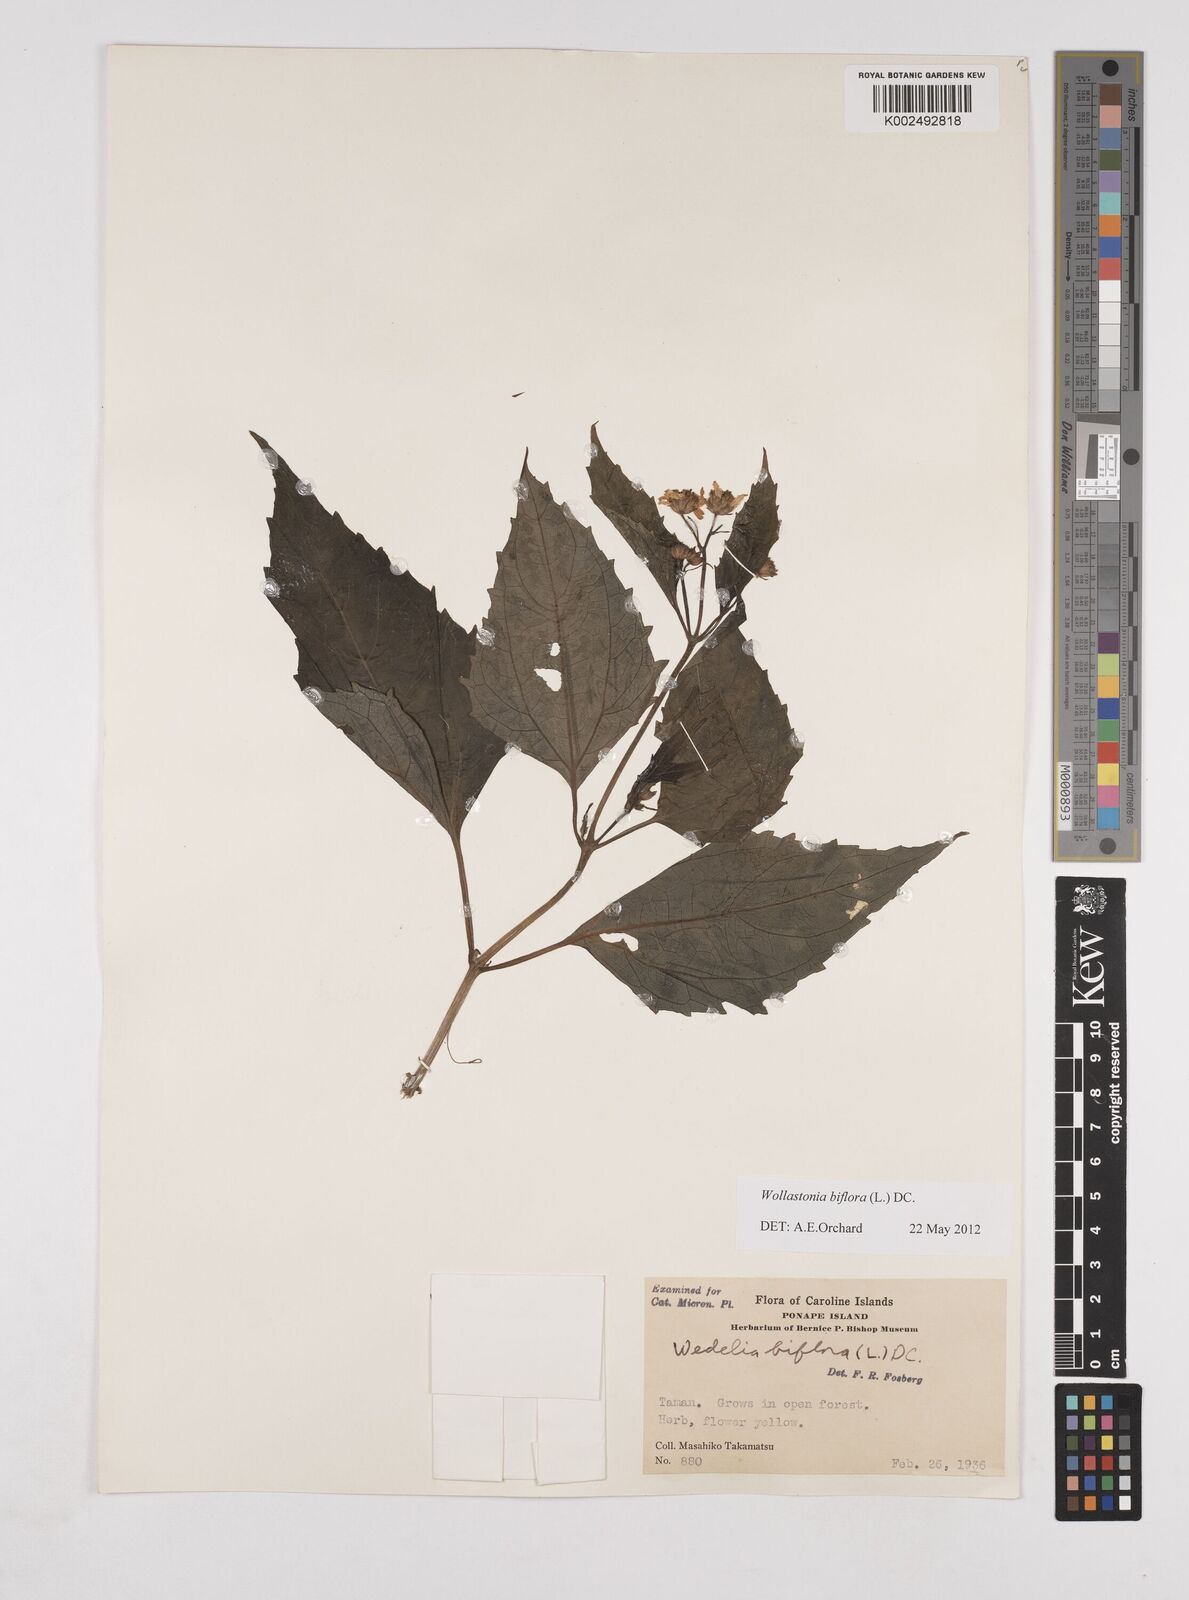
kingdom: Plantae
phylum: Tracheophyta
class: Magnoliopsida
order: Asterales
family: Asteraceae
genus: Wollastonia
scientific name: Wollastonia biflora
